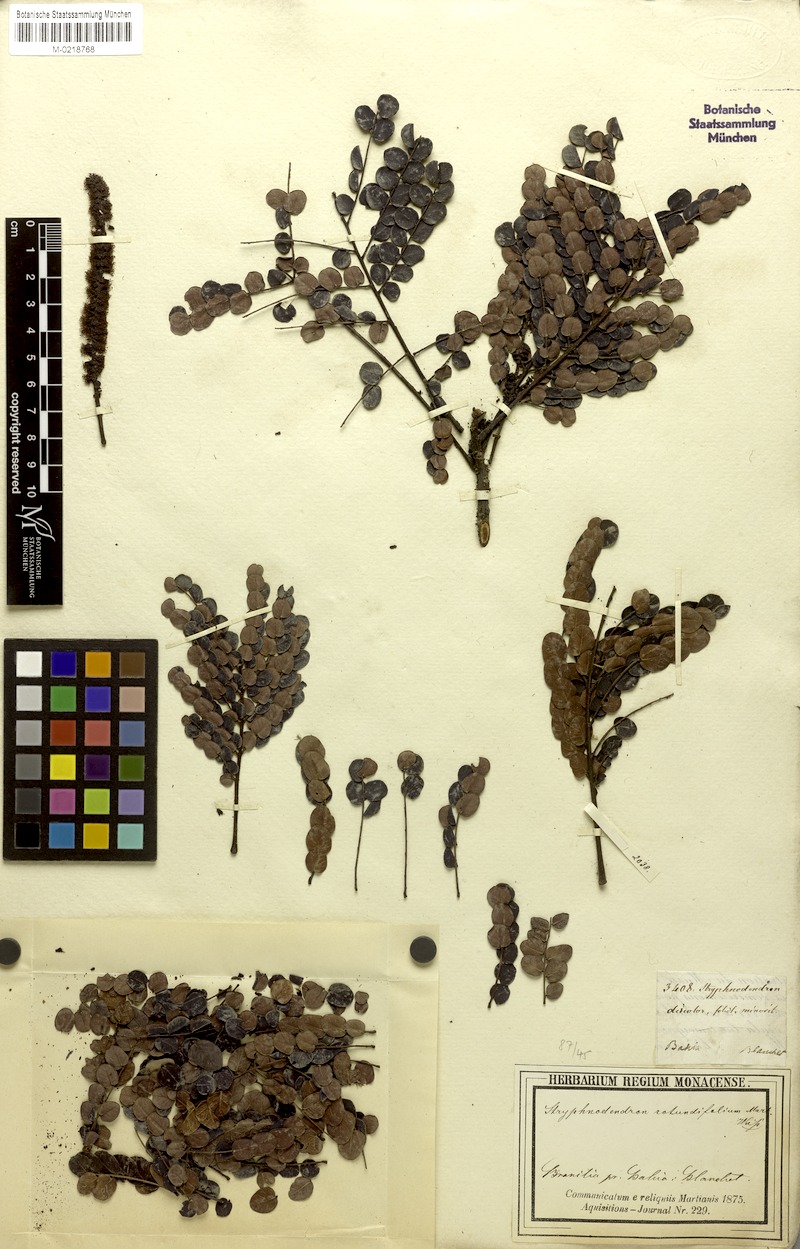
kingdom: Plantae
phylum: Tracheophyta
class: Magnoliopsida
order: Fabales
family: Fabaceae
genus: Stryphnodendron
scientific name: Stryphnodendron rotundifolium
